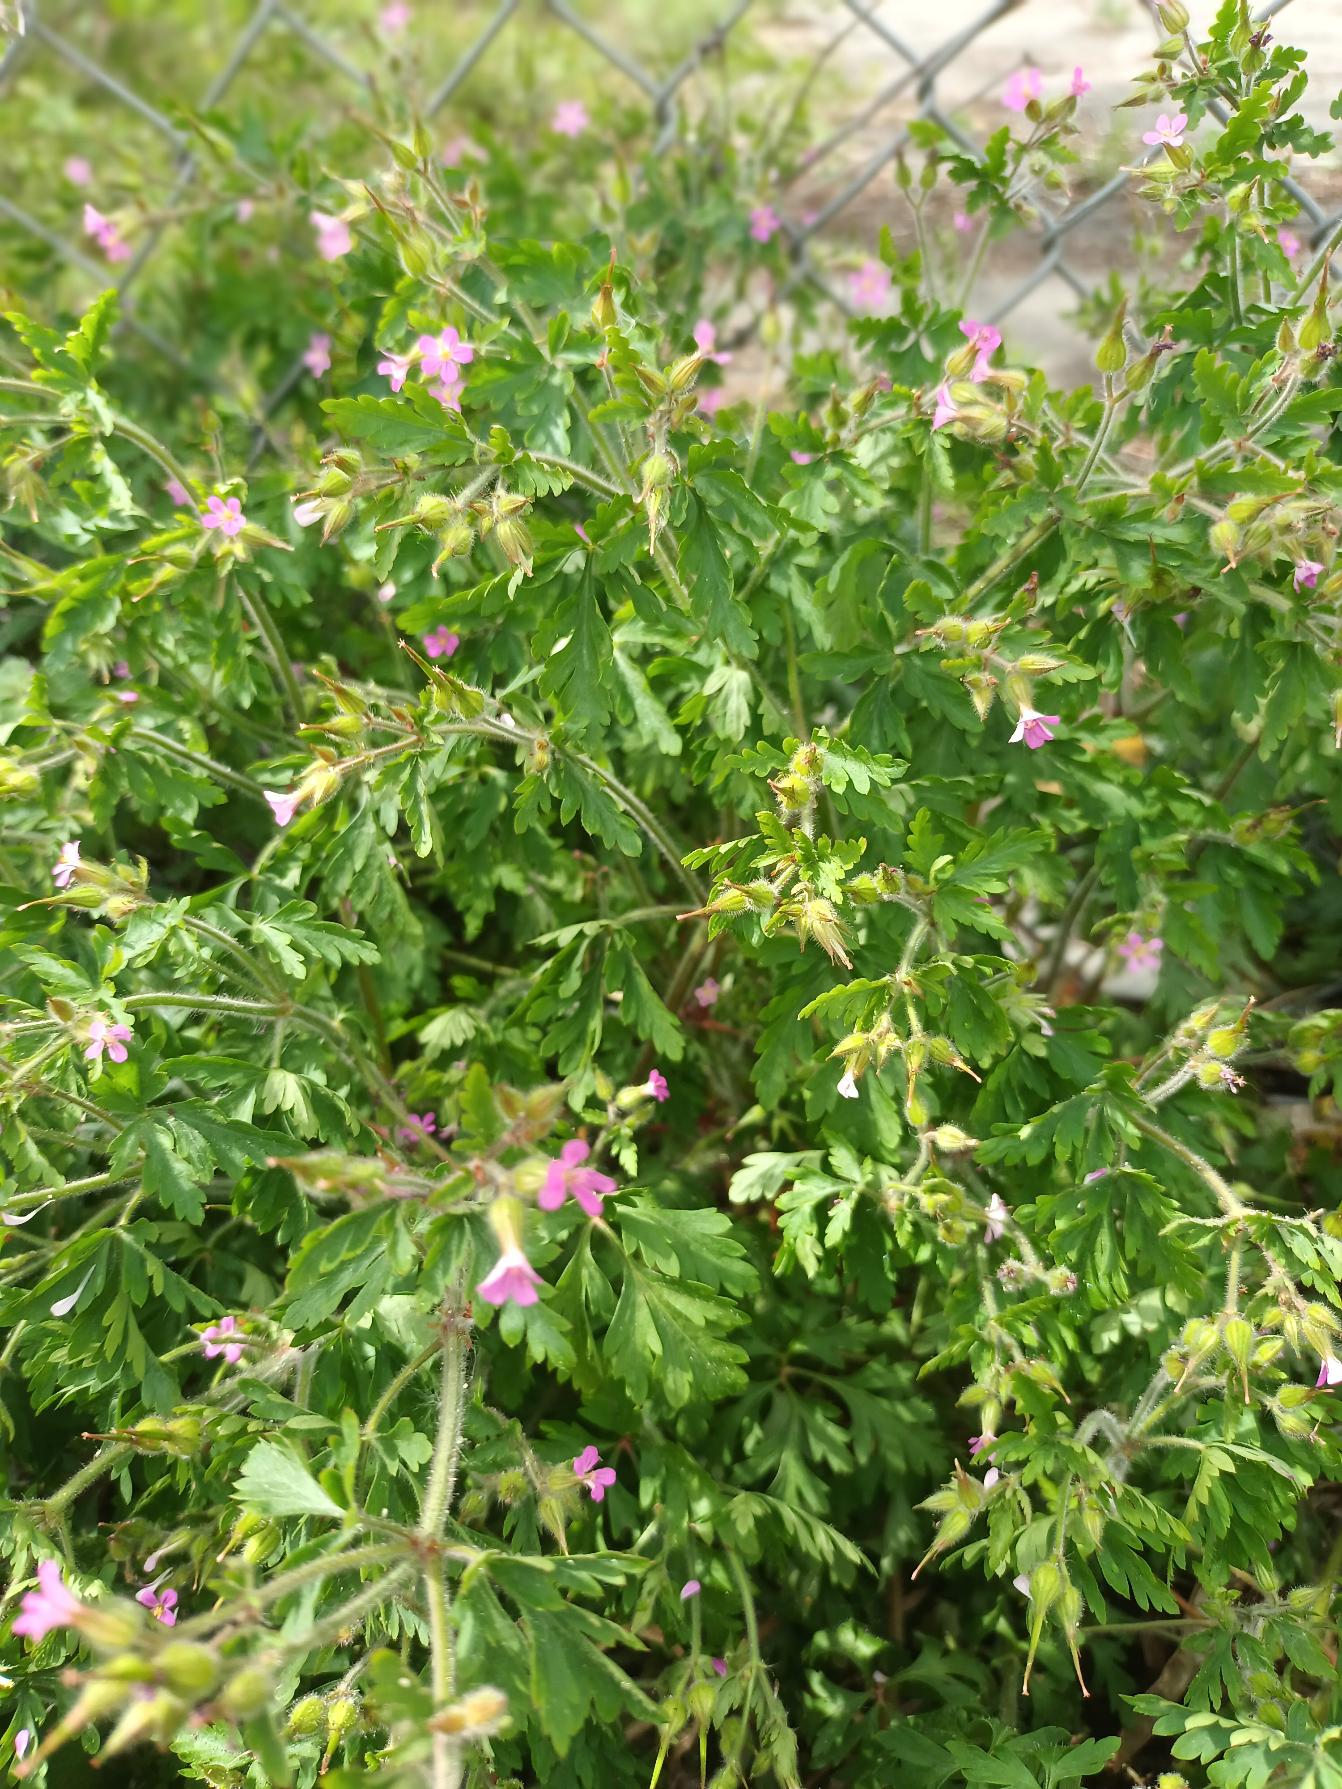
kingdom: Plantae
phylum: Tracheophyta
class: Magnoliopsida
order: Geraniales
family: Geraniaceae
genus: Geranium
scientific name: Geranium purpureum
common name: Purpur-storkenæb
